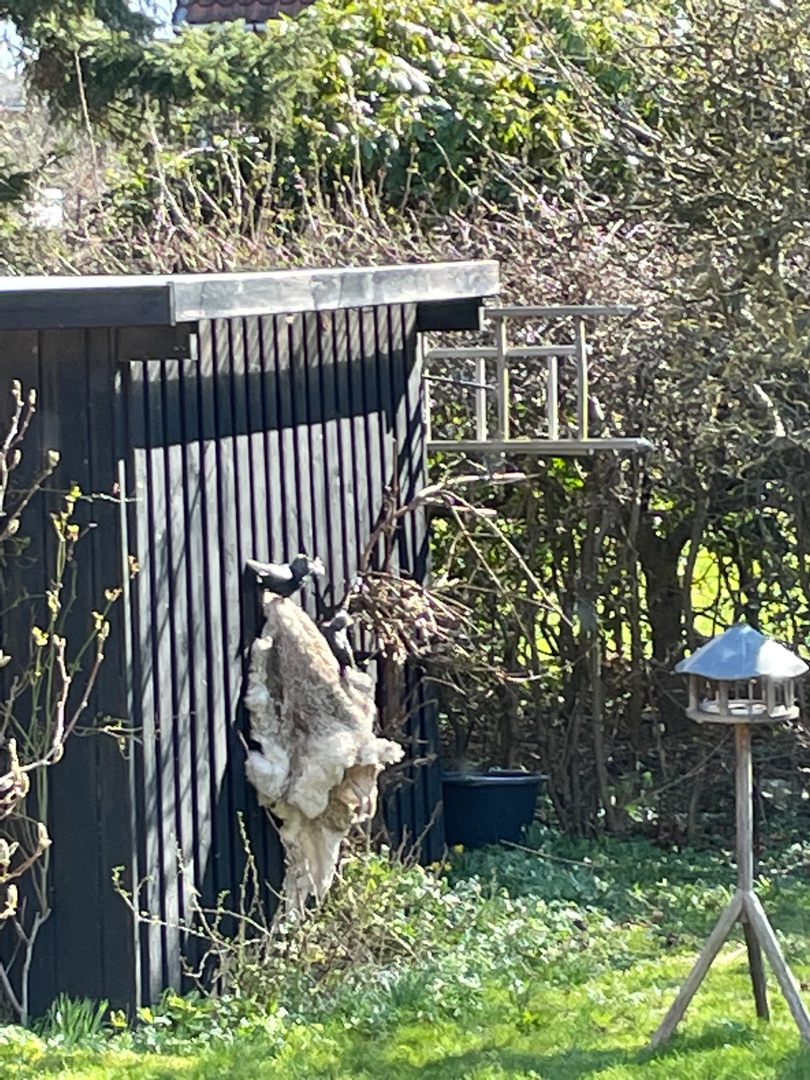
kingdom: Animalia
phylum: Chordata
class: Aves
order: Passeriformes
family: Corvidae
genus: Coloeus
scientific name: Coloeus monedula
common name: Allike
